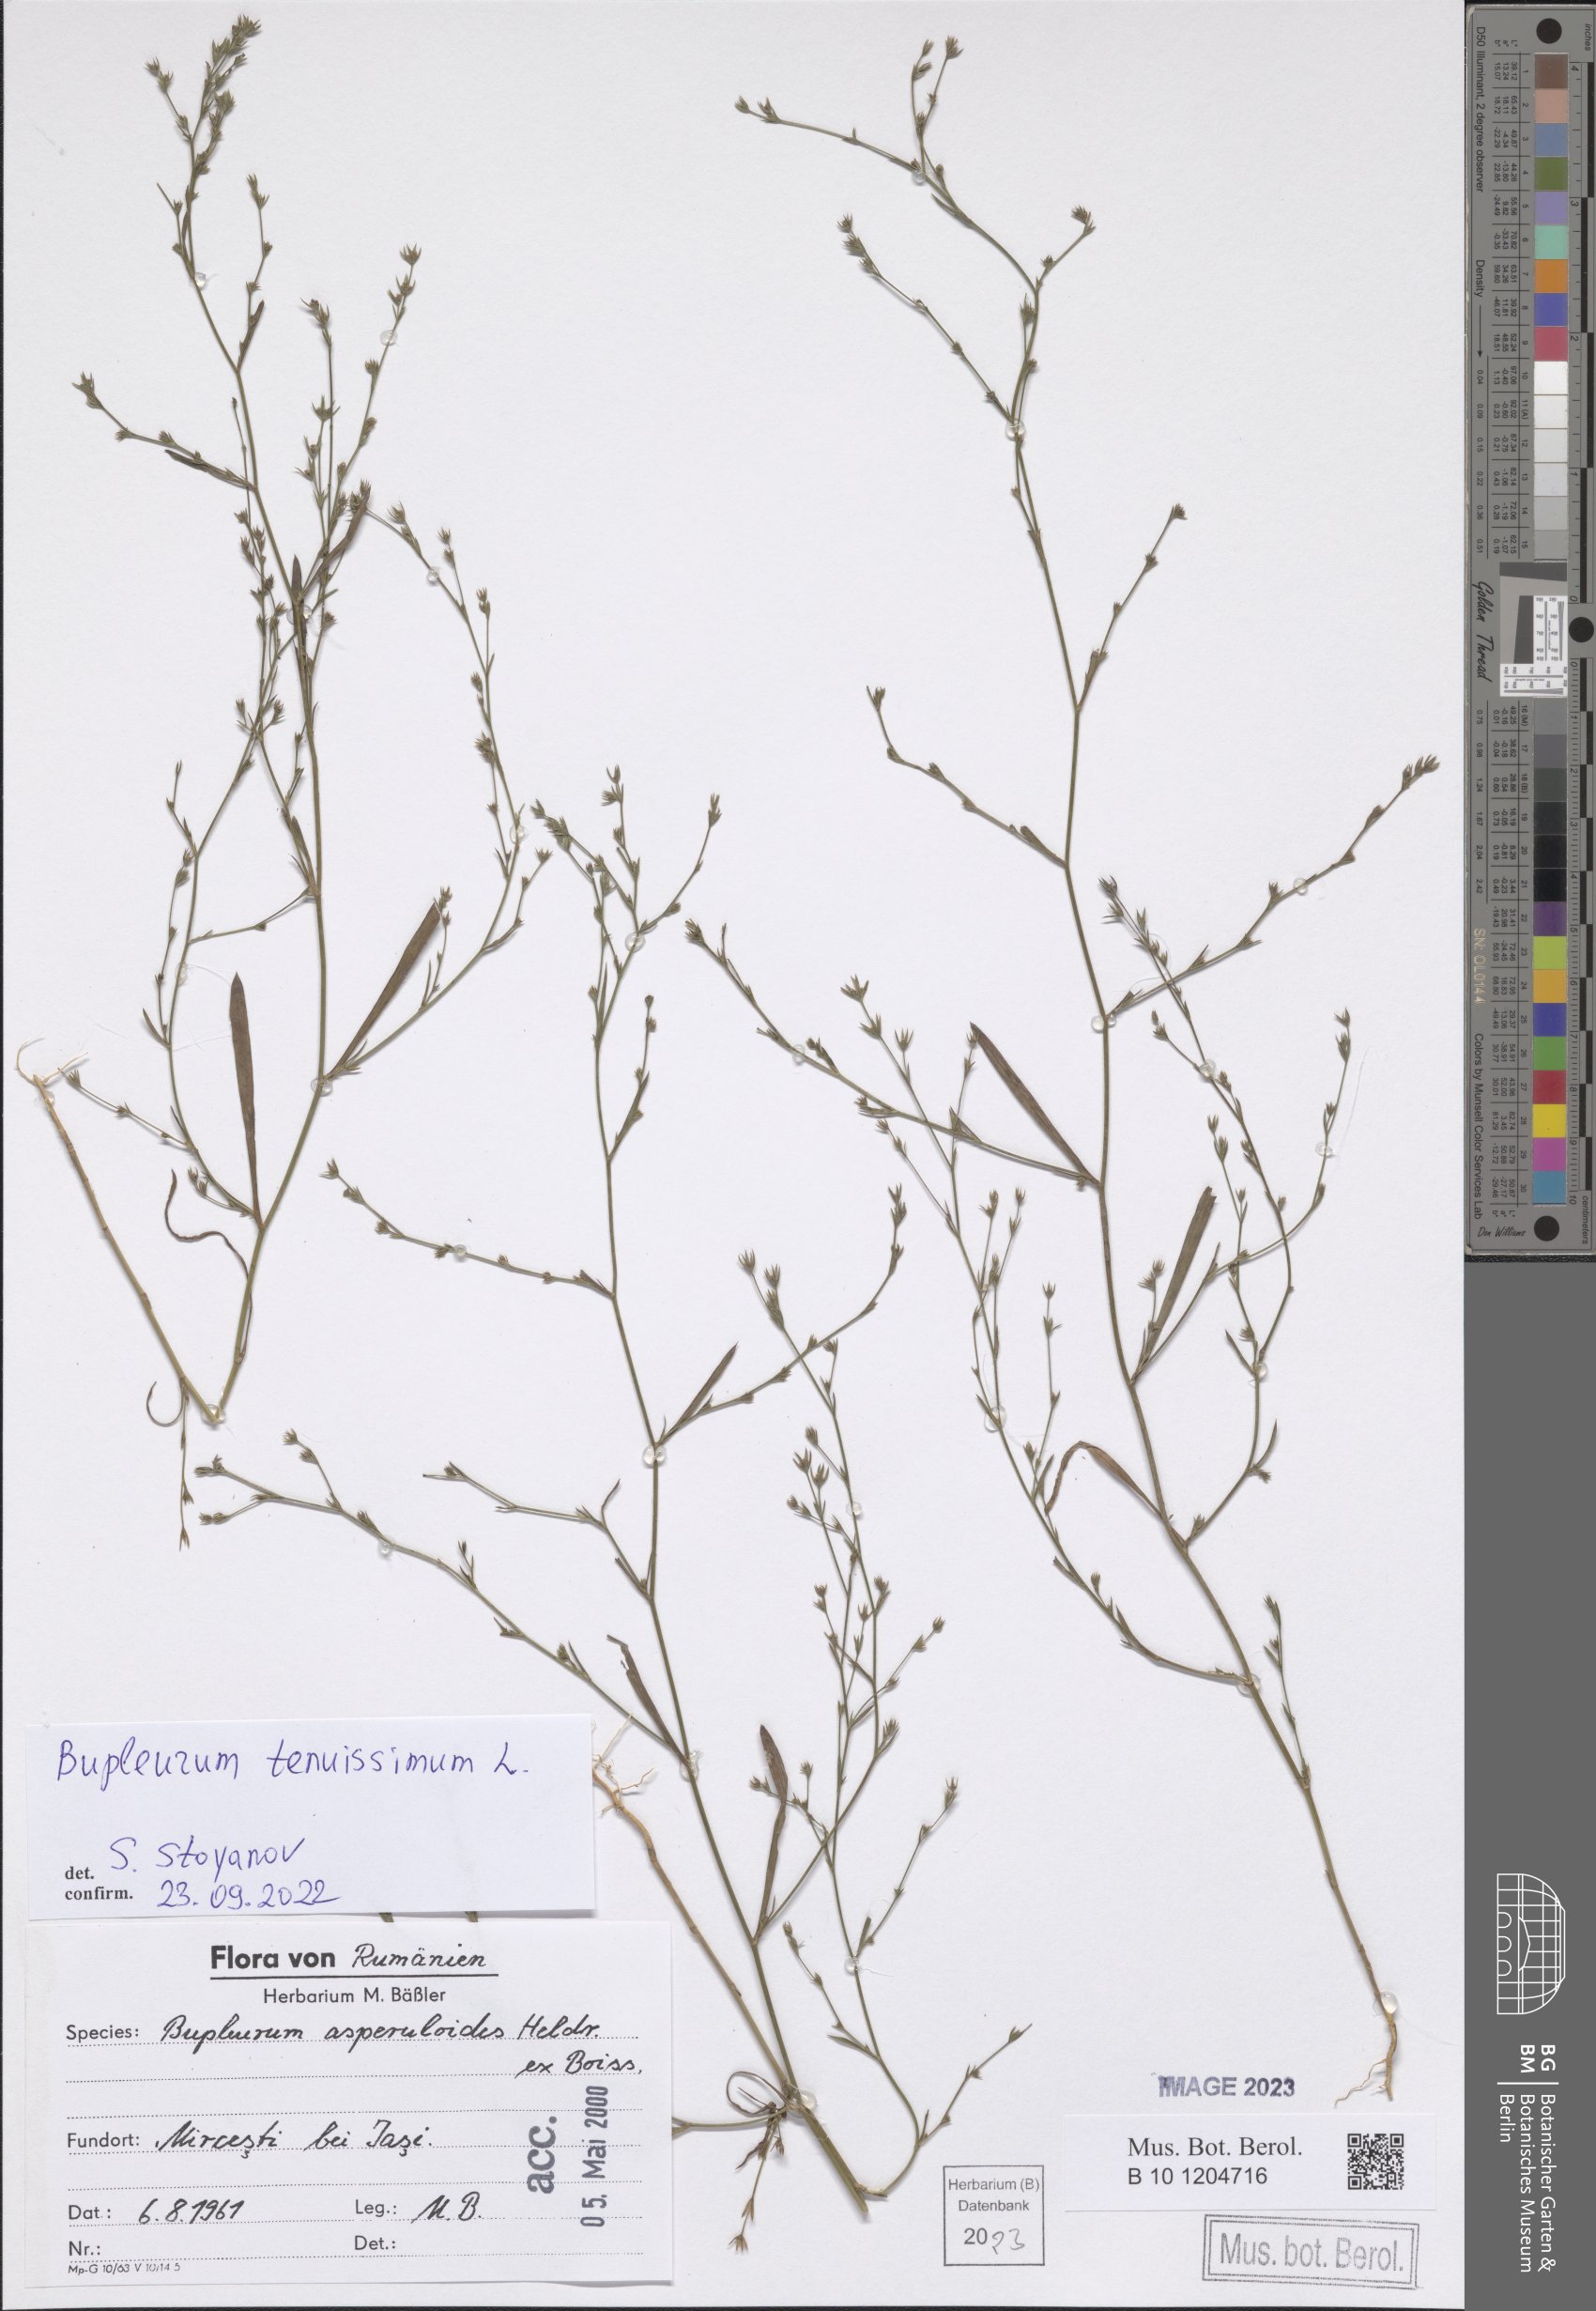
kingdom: Plantae
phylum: Tracheophyta
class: Magnoliopsida
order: Apiales
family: Apiaceae
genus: Bupleurum
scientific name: Bupleurum tenuissimum
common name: Slender hare's-ear
